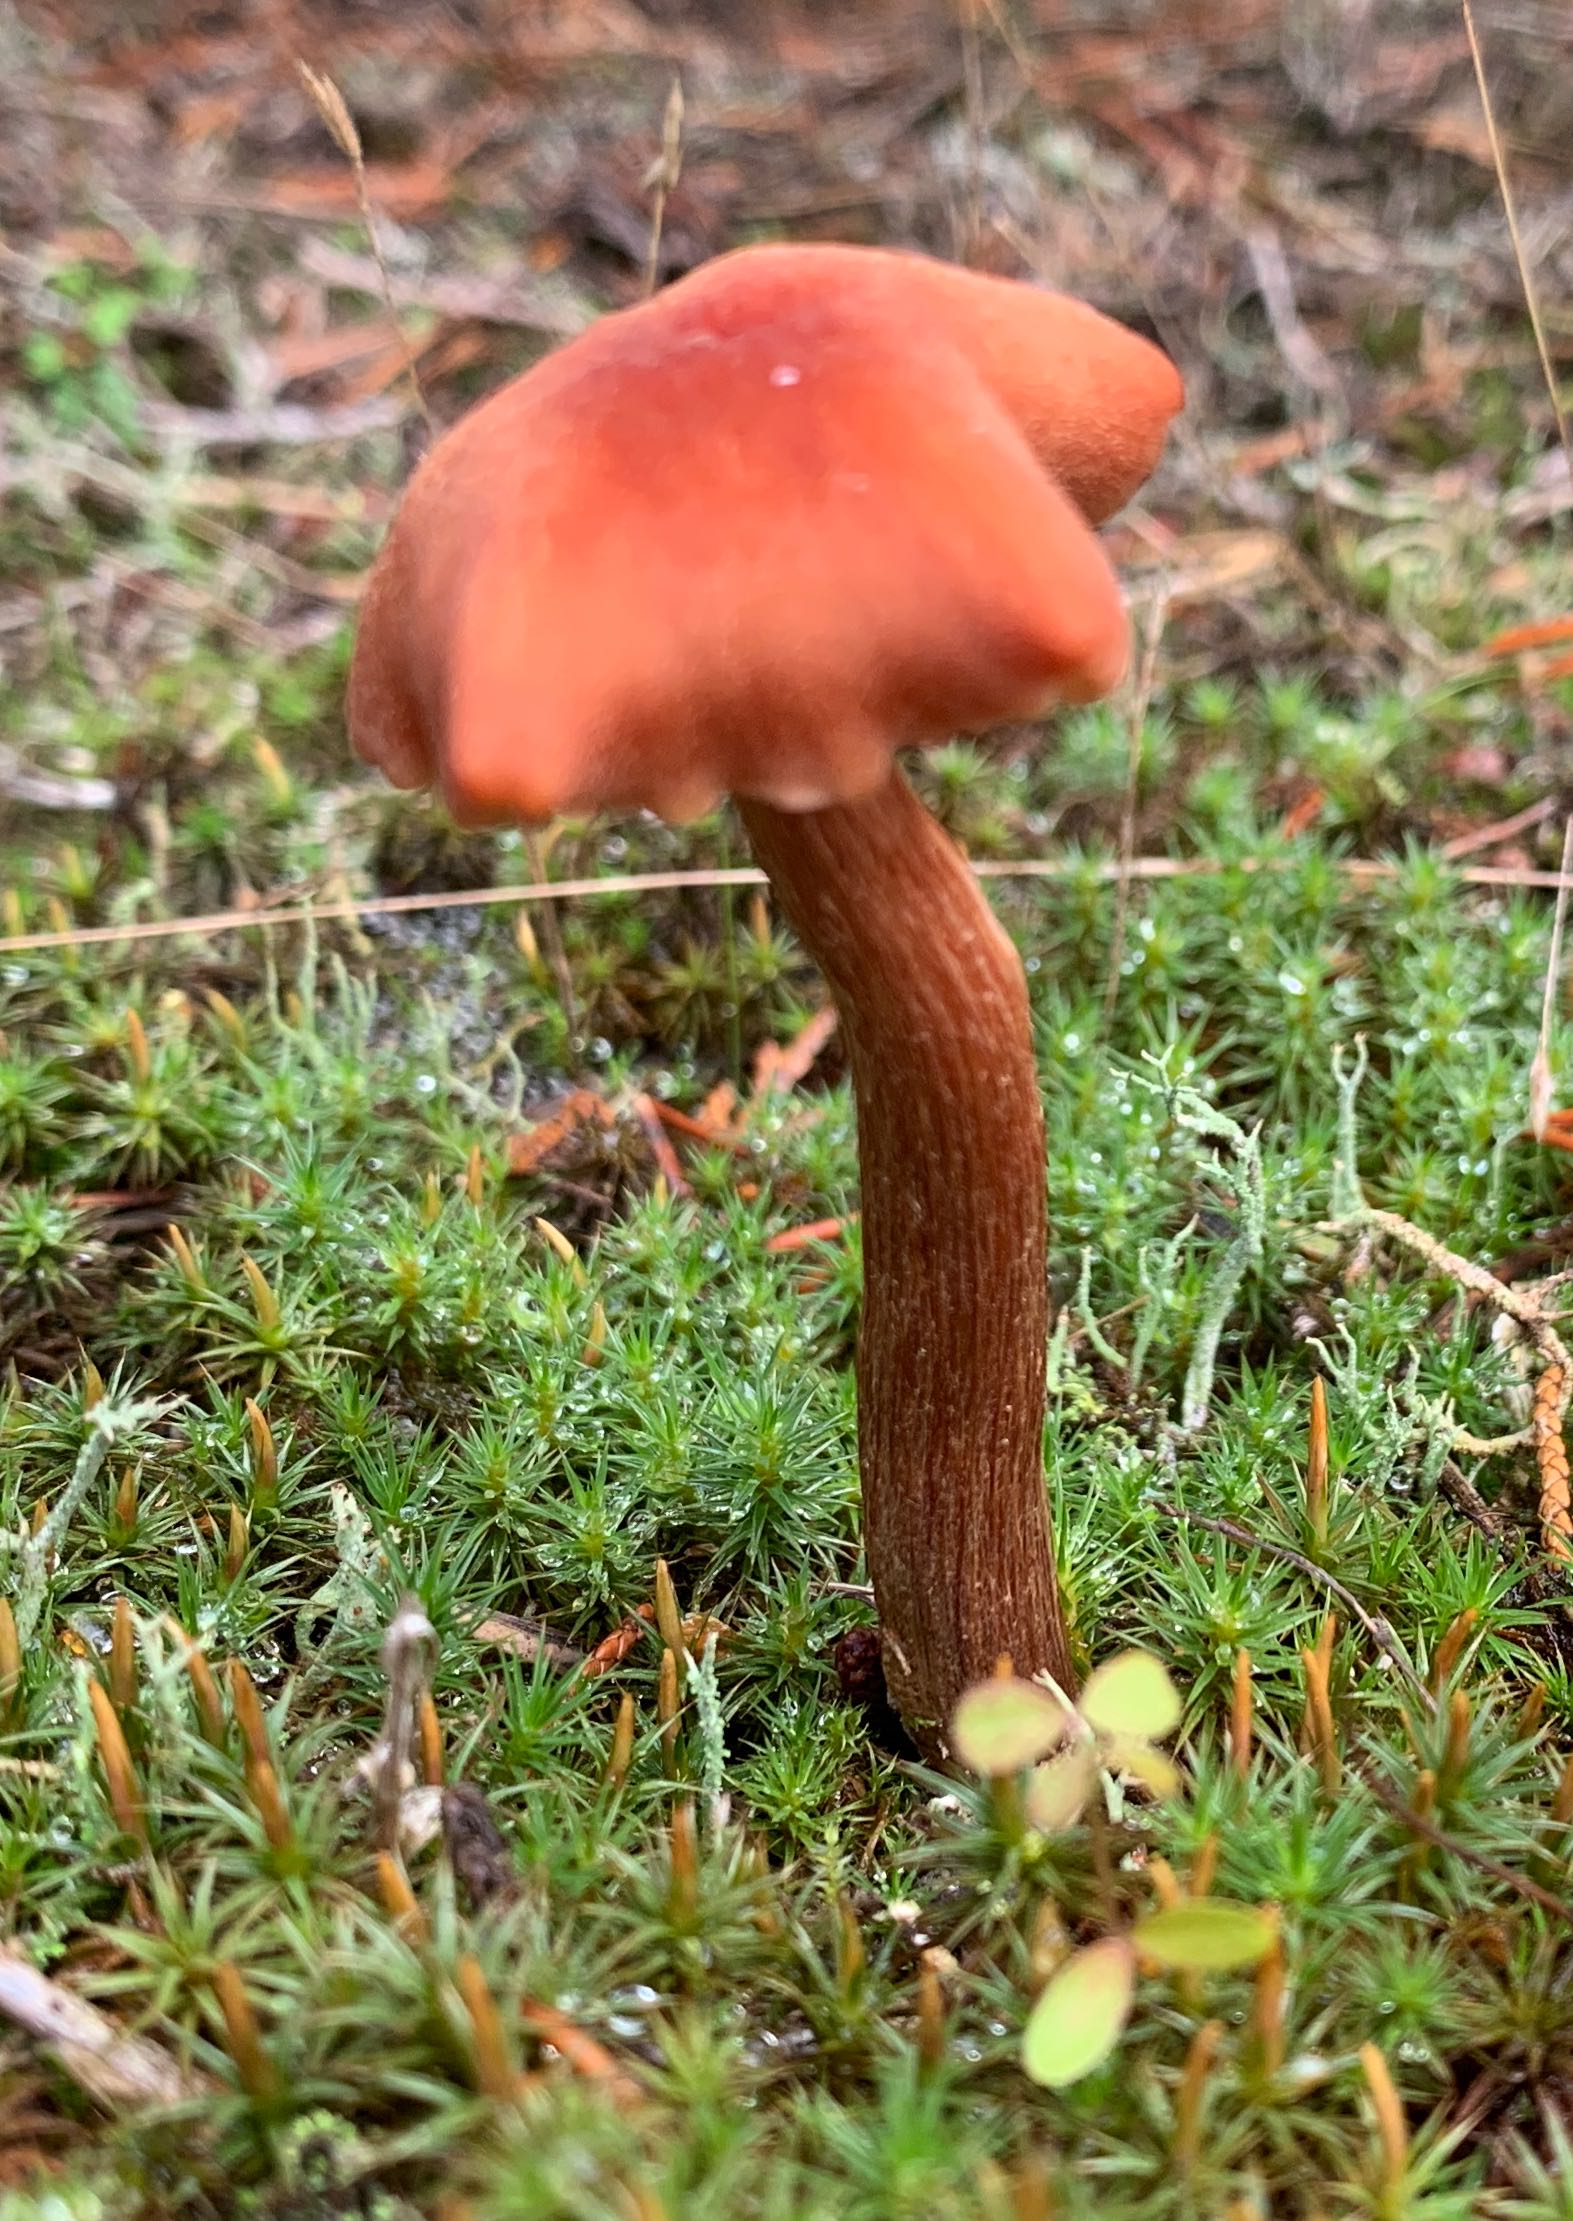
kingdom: Fungi
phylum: Basidiomycota
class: Agaricomycetes
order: Agaricales
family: Hydnangiaceae
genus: Laccaria
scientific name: Laccaria proxima
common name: stor ametysthat
